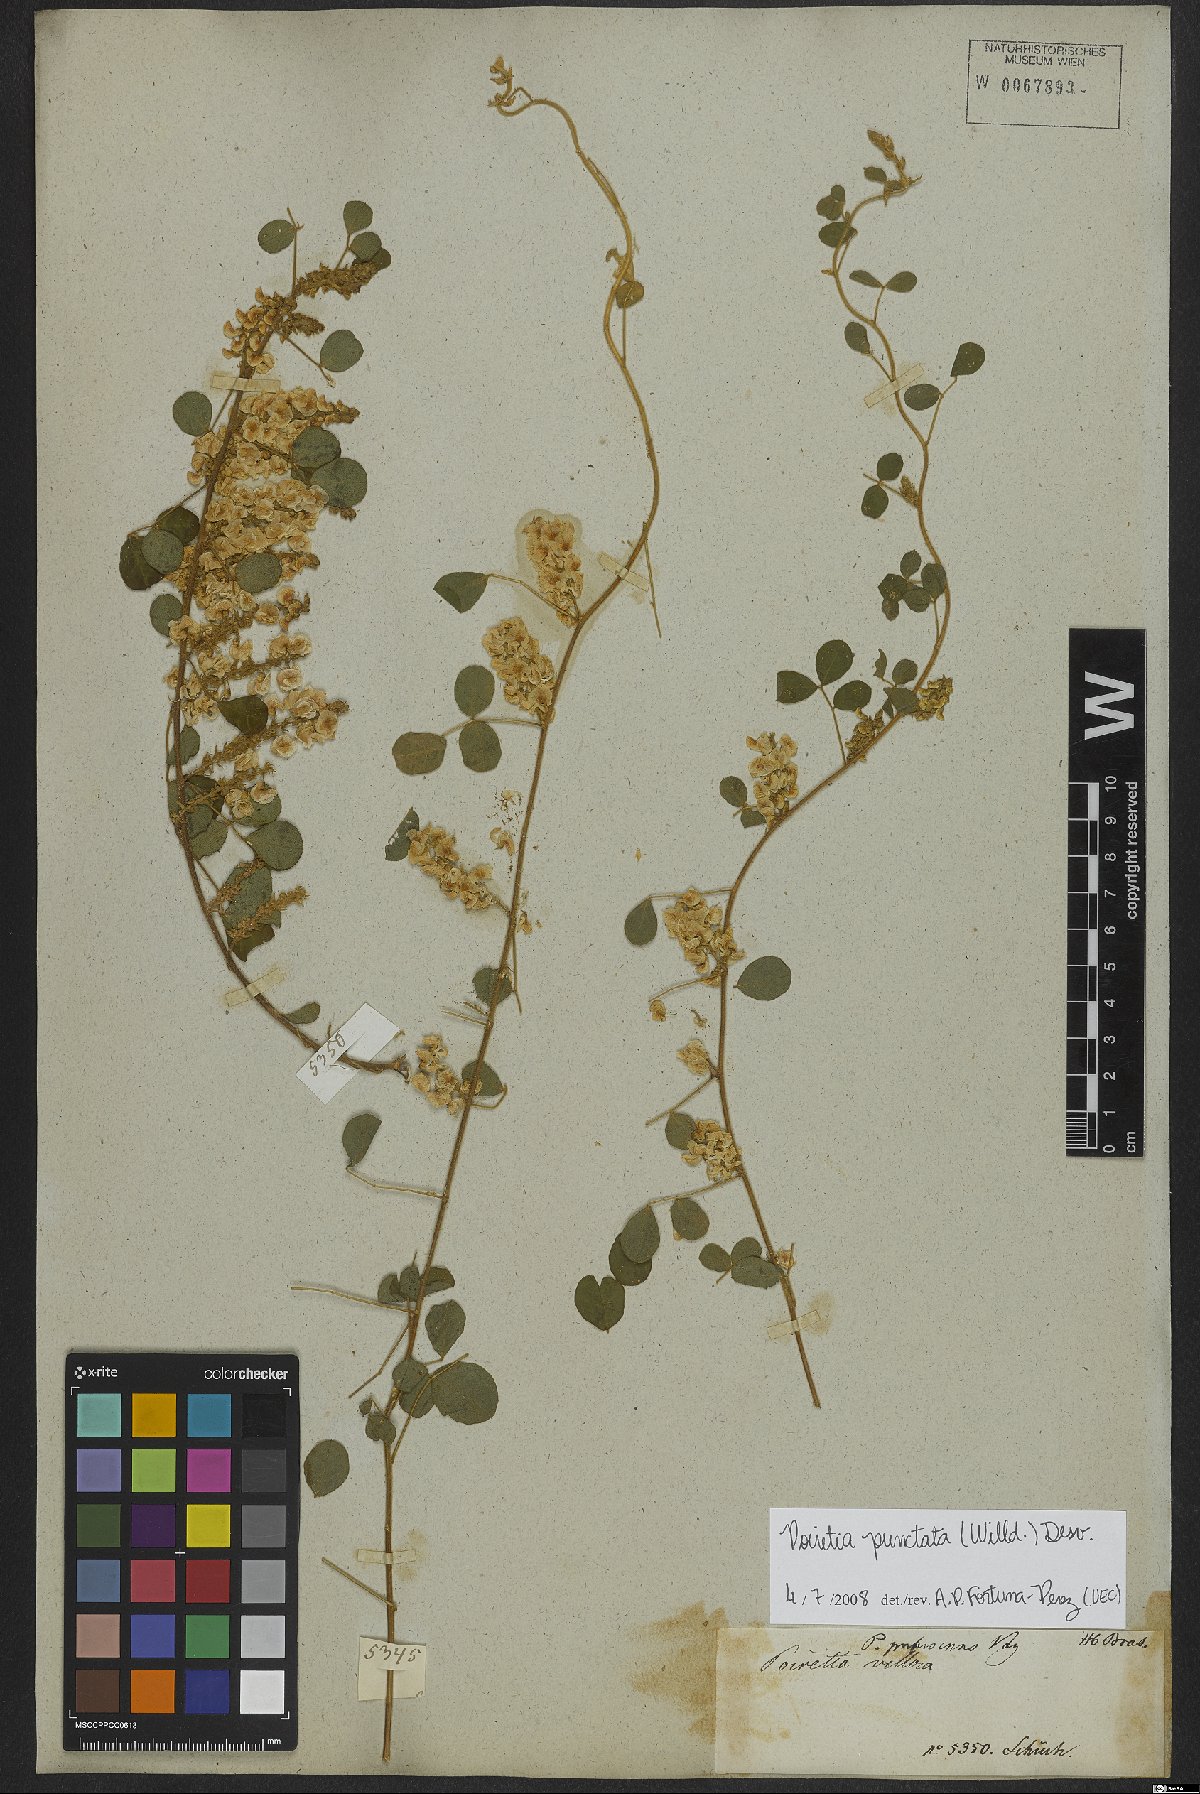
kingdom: Plantae
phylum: Tracheophyta
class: Magnoliopsida
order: Fabales
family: Fabaceae
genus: Poiretia
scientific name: Poiretia punctata
